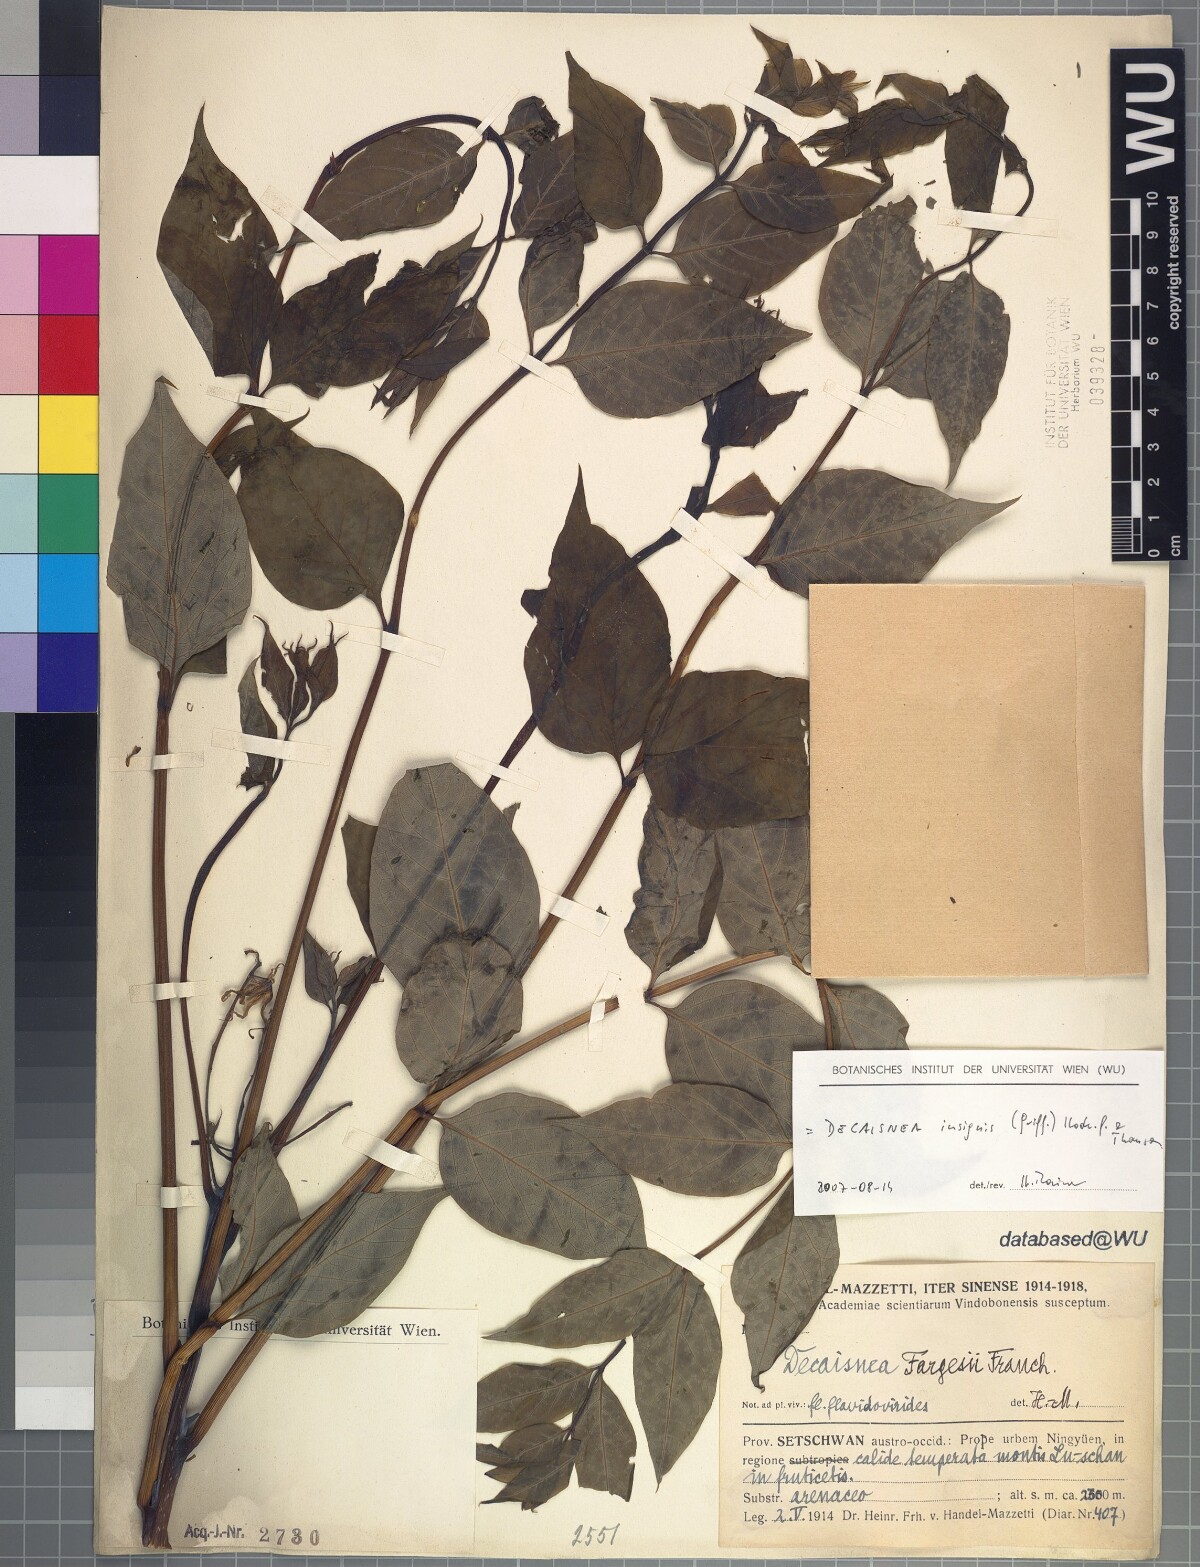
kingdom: Plantae
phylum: Tracheophyta
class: Magnoliopsida
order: Ranunculales
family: Lardizabalaceae
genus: Decaisnea
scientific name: Decaisnea insignis
